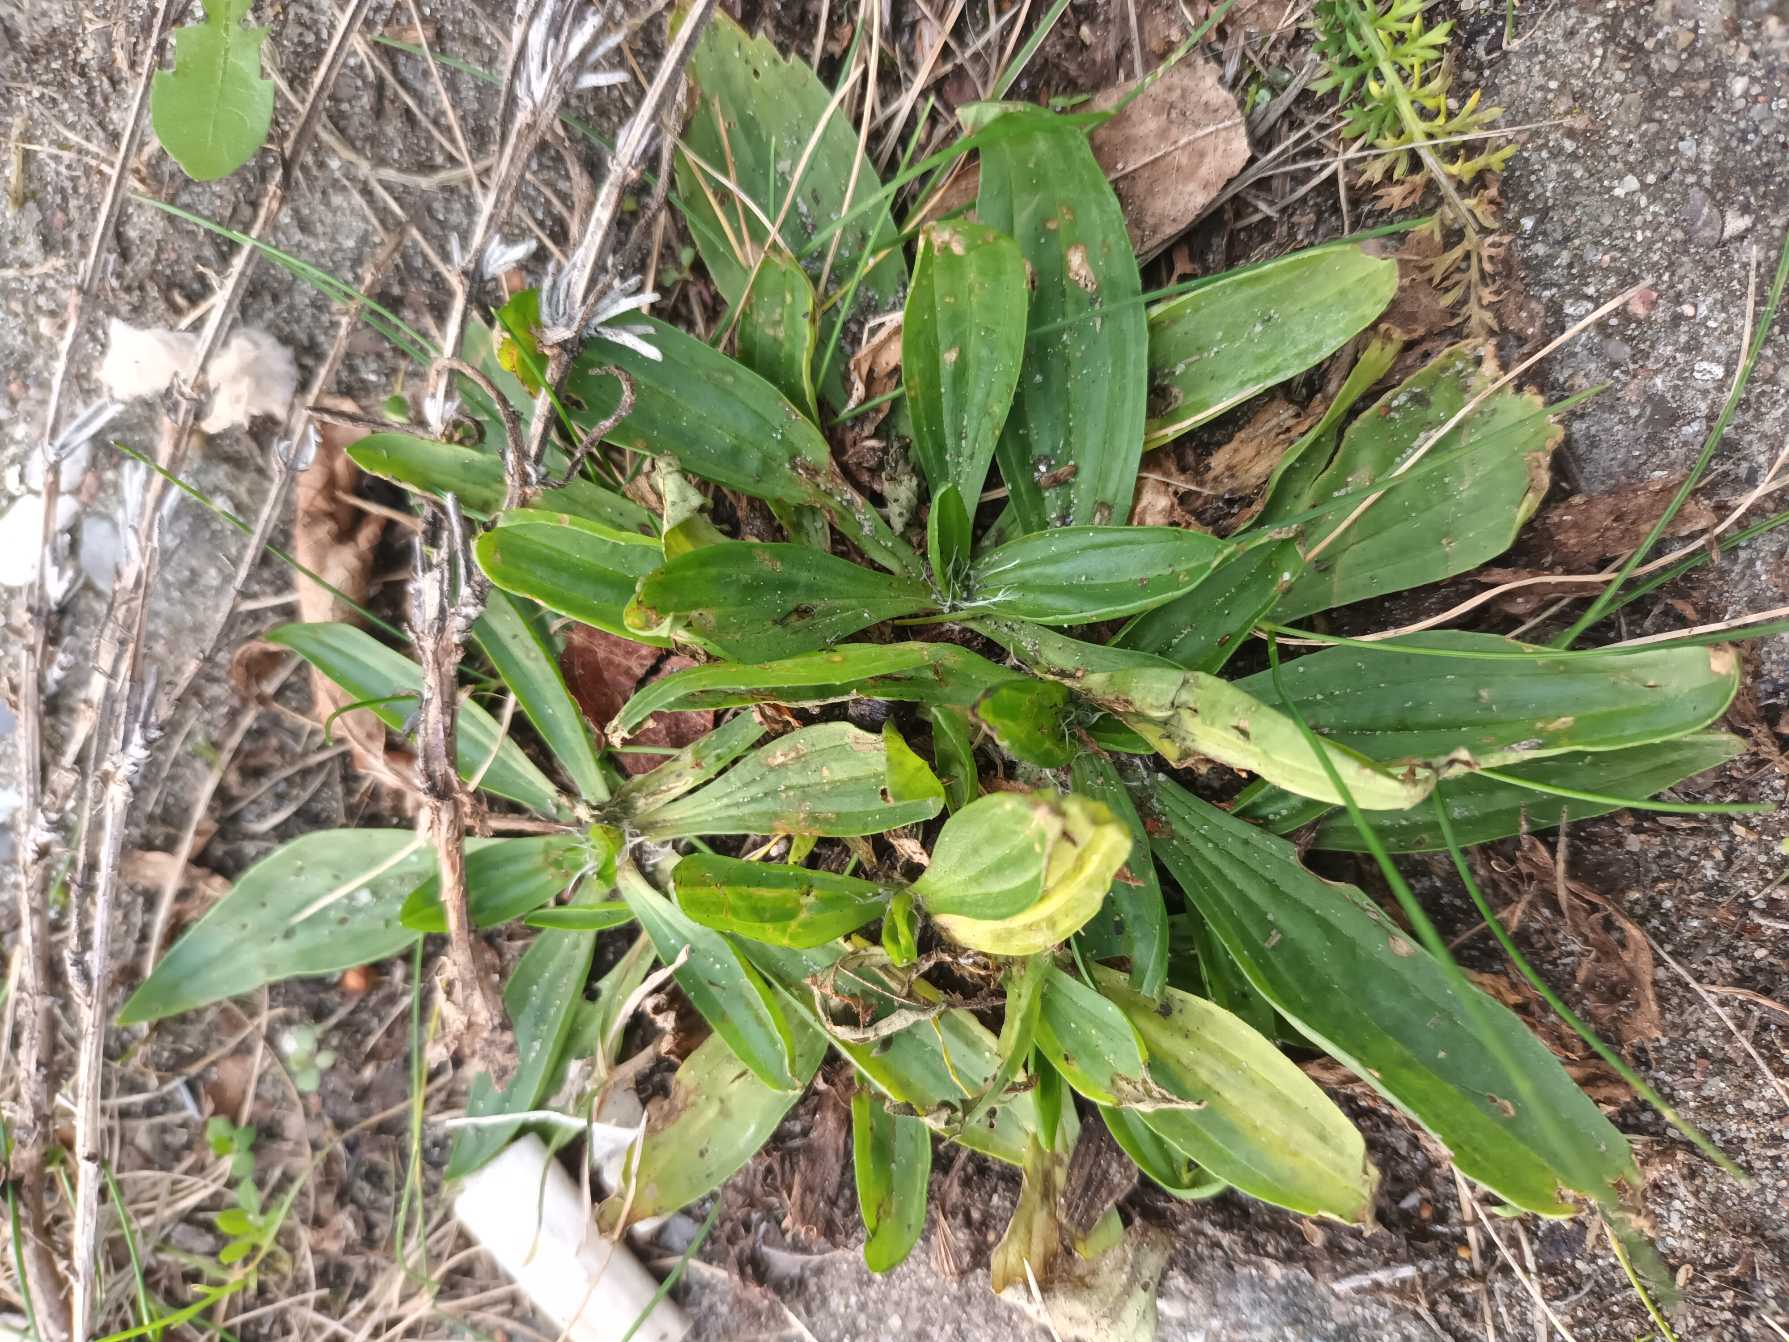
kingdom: Plantae
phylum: Tracheophyta
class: Magnoliopsida
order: Lamiales
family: Plantaginaceae
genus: Plantago
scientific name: Plantago lanceolata
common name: Lancet-vejbred
